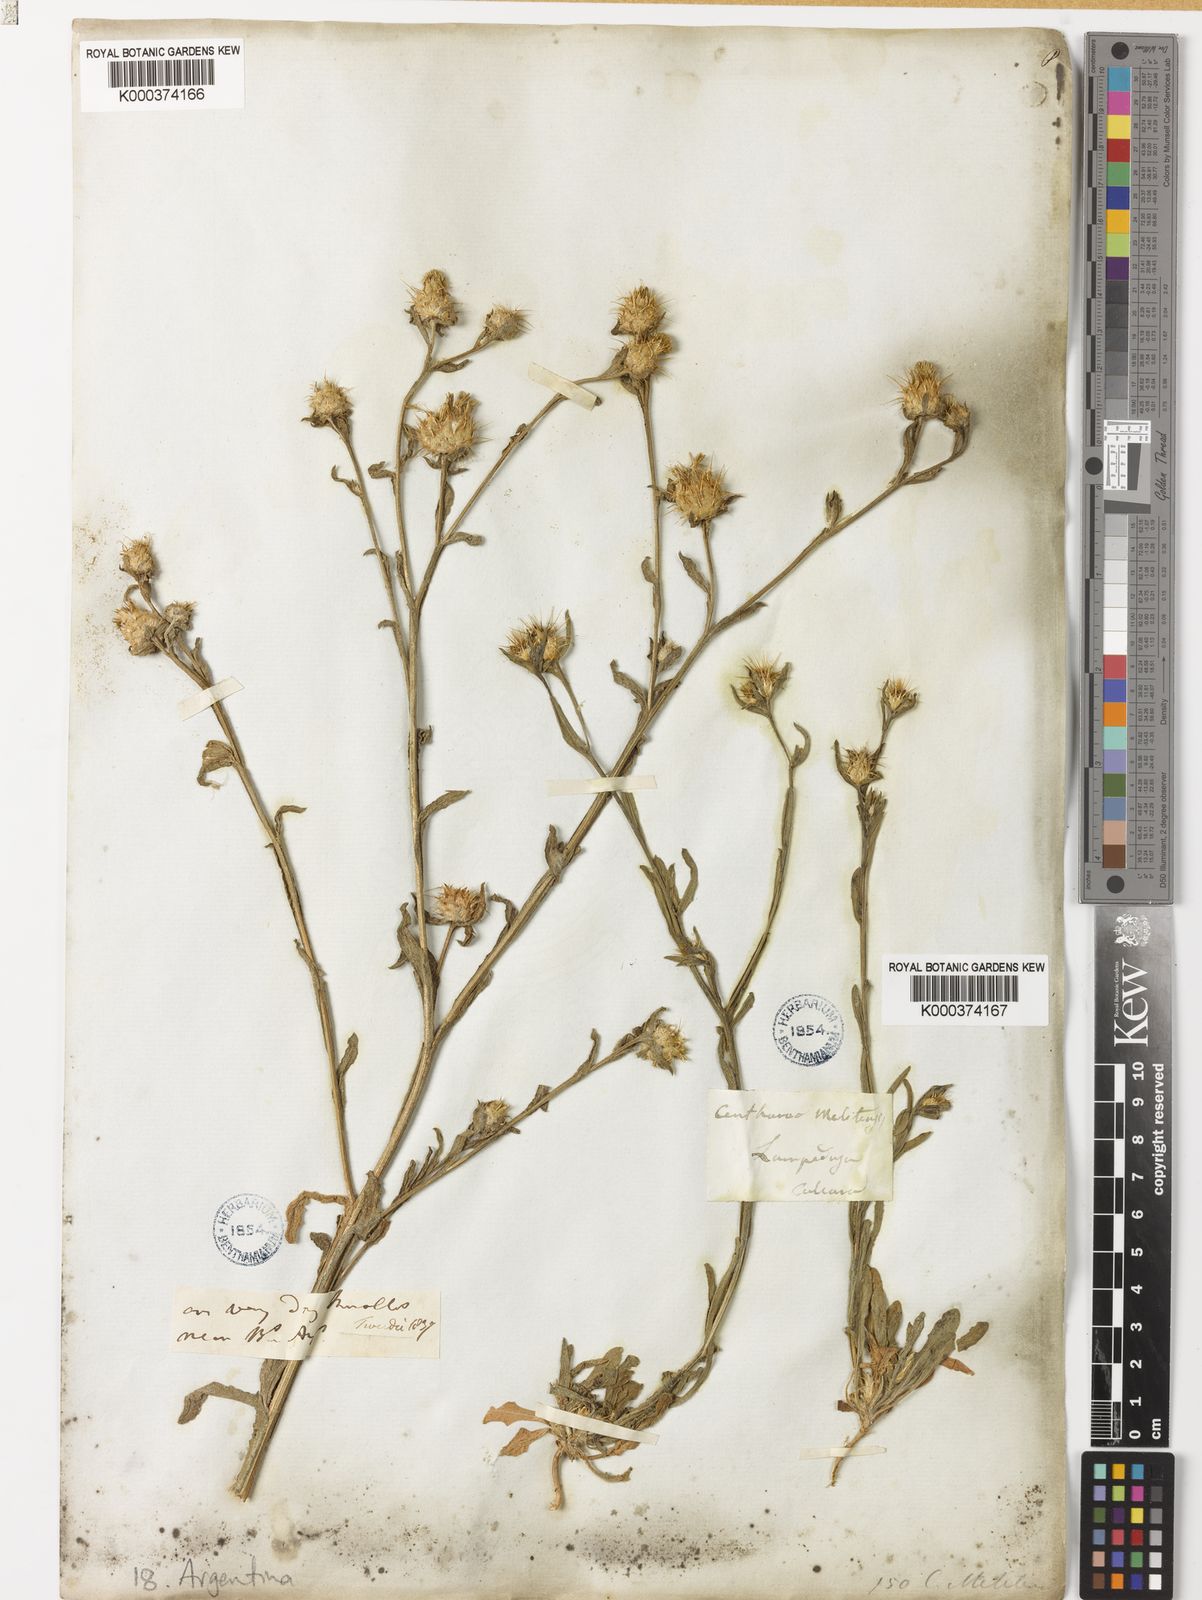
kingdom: Plantae
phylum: Tracheophyta
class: Magnoliopsida
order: Asterales
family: Asteraceae
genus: Centaurea
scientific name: Centaurea melitensis
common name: Maltese star-thistle
